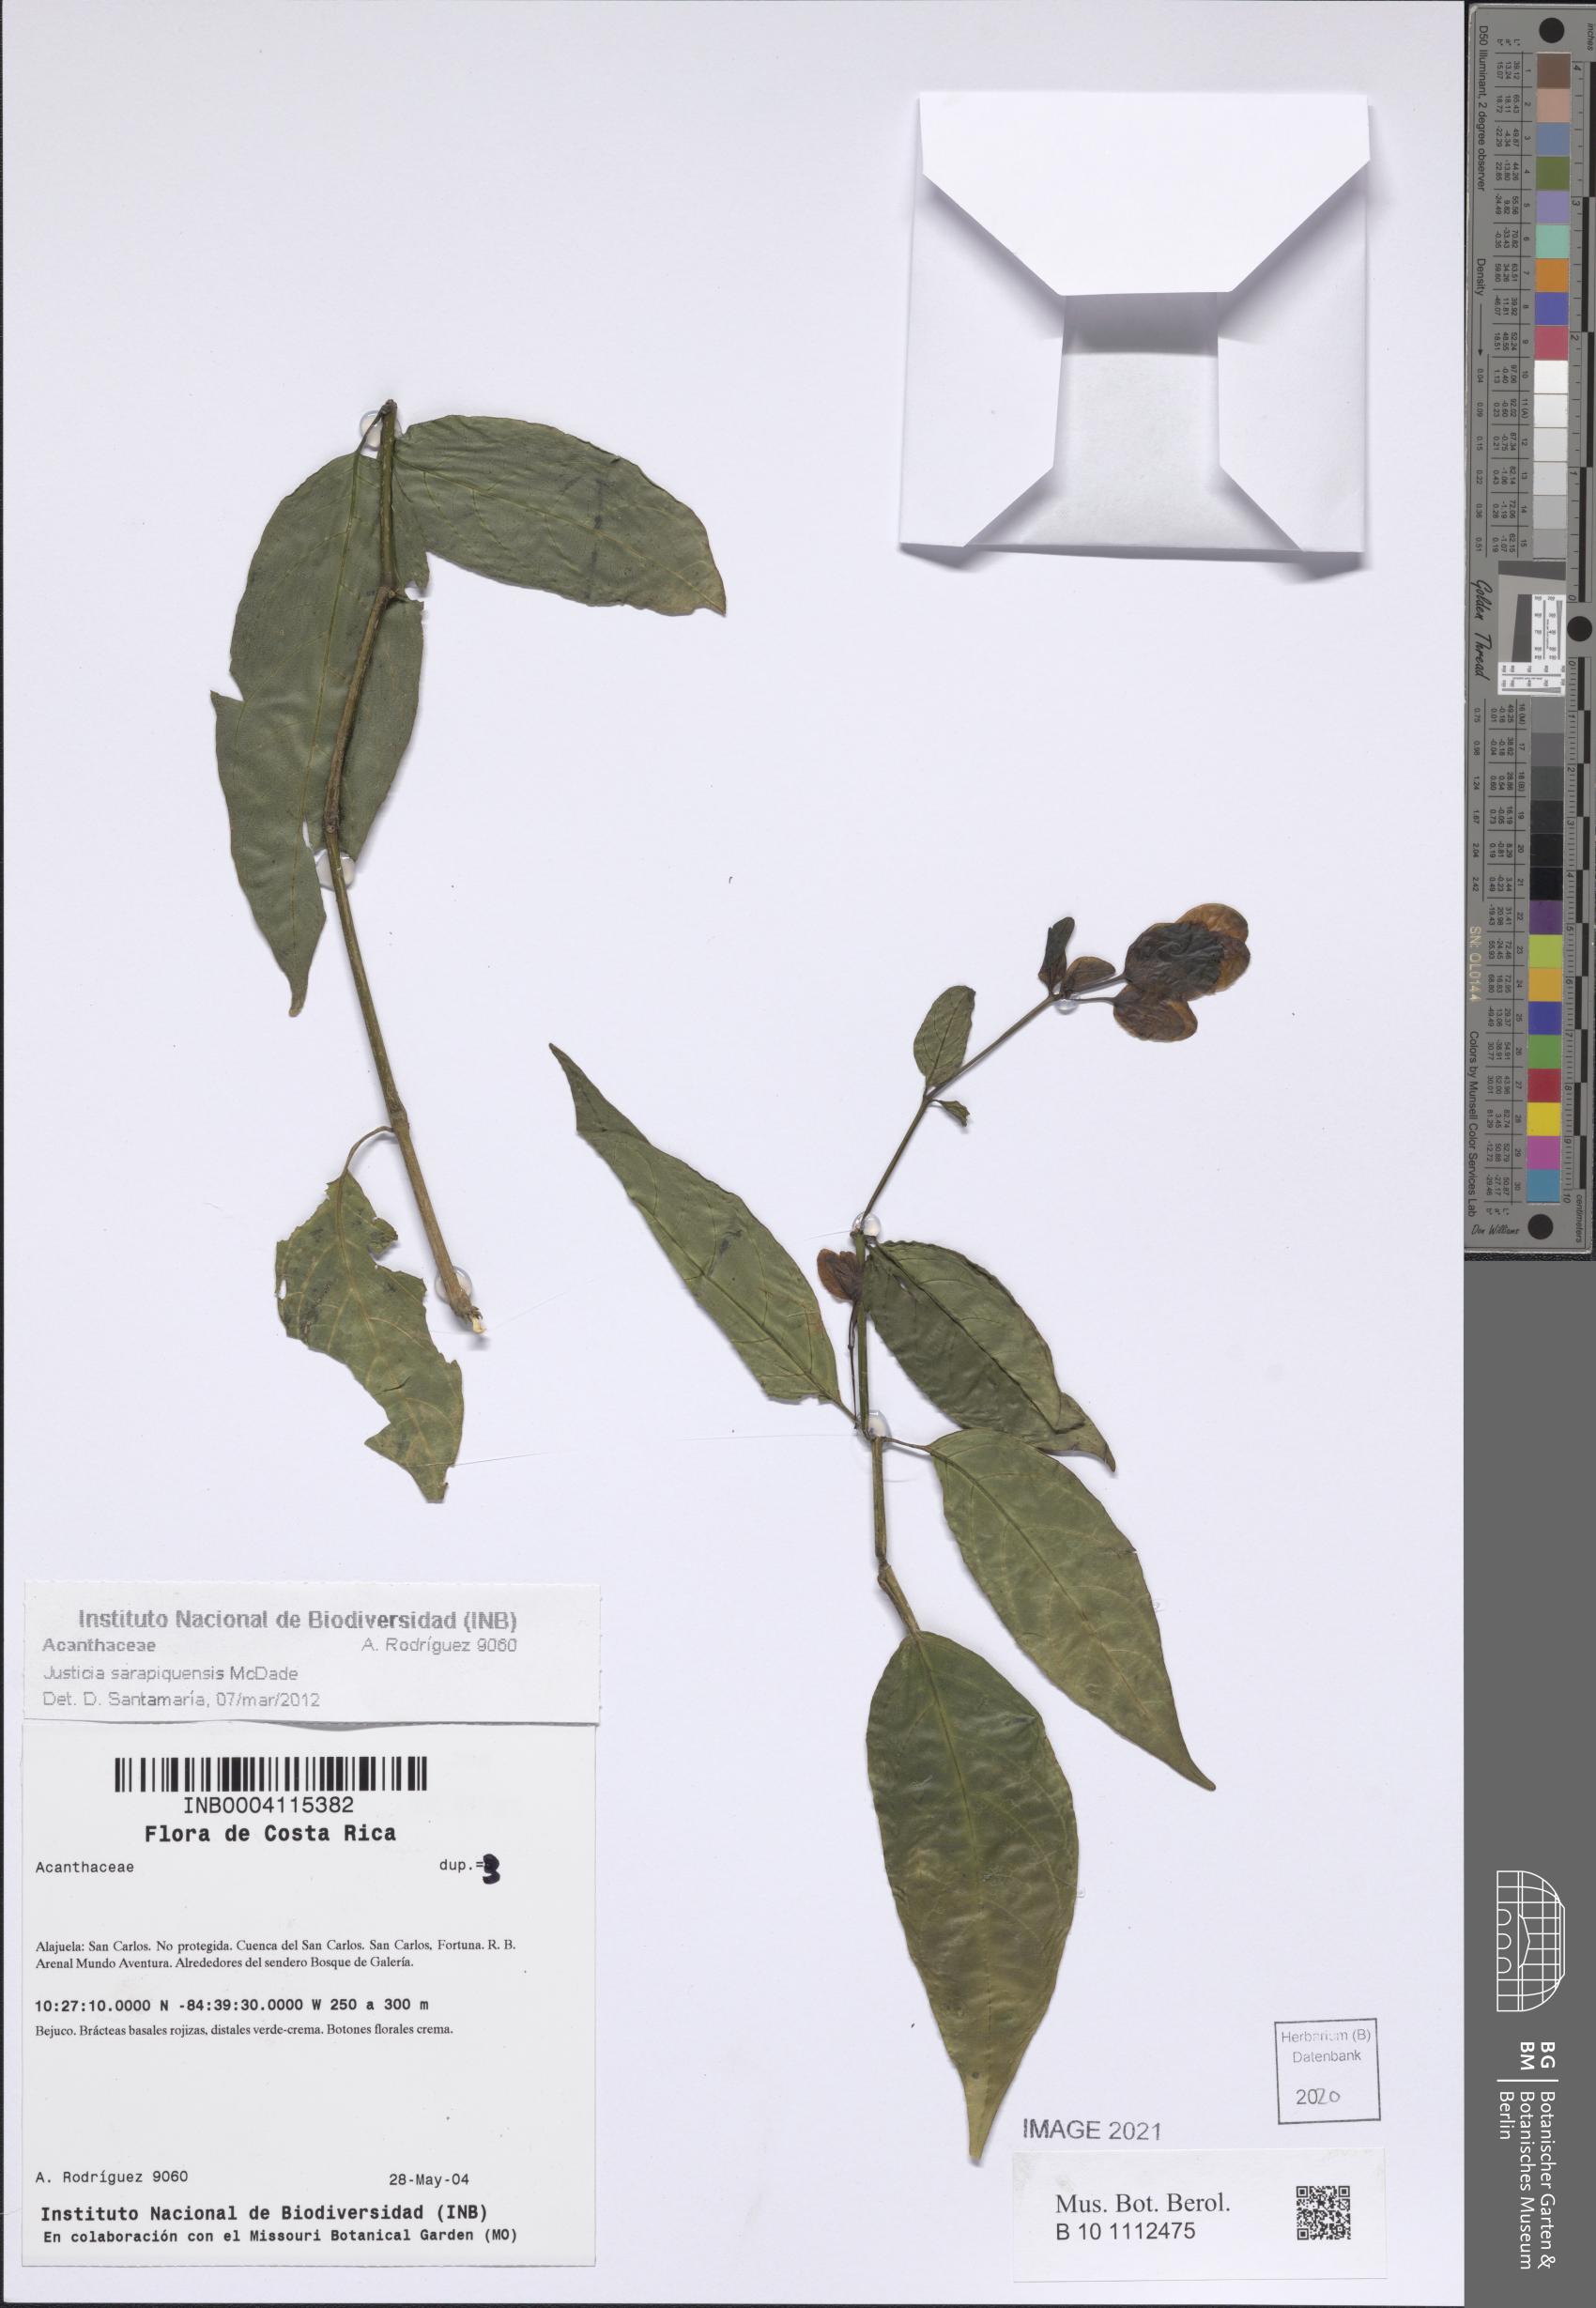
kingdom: Plantae
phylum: Tracheophyta
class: Magnoliopsida
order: Lamiales
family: Acanthaceae
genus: Justicia
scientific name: Justicia sarapiquensis
